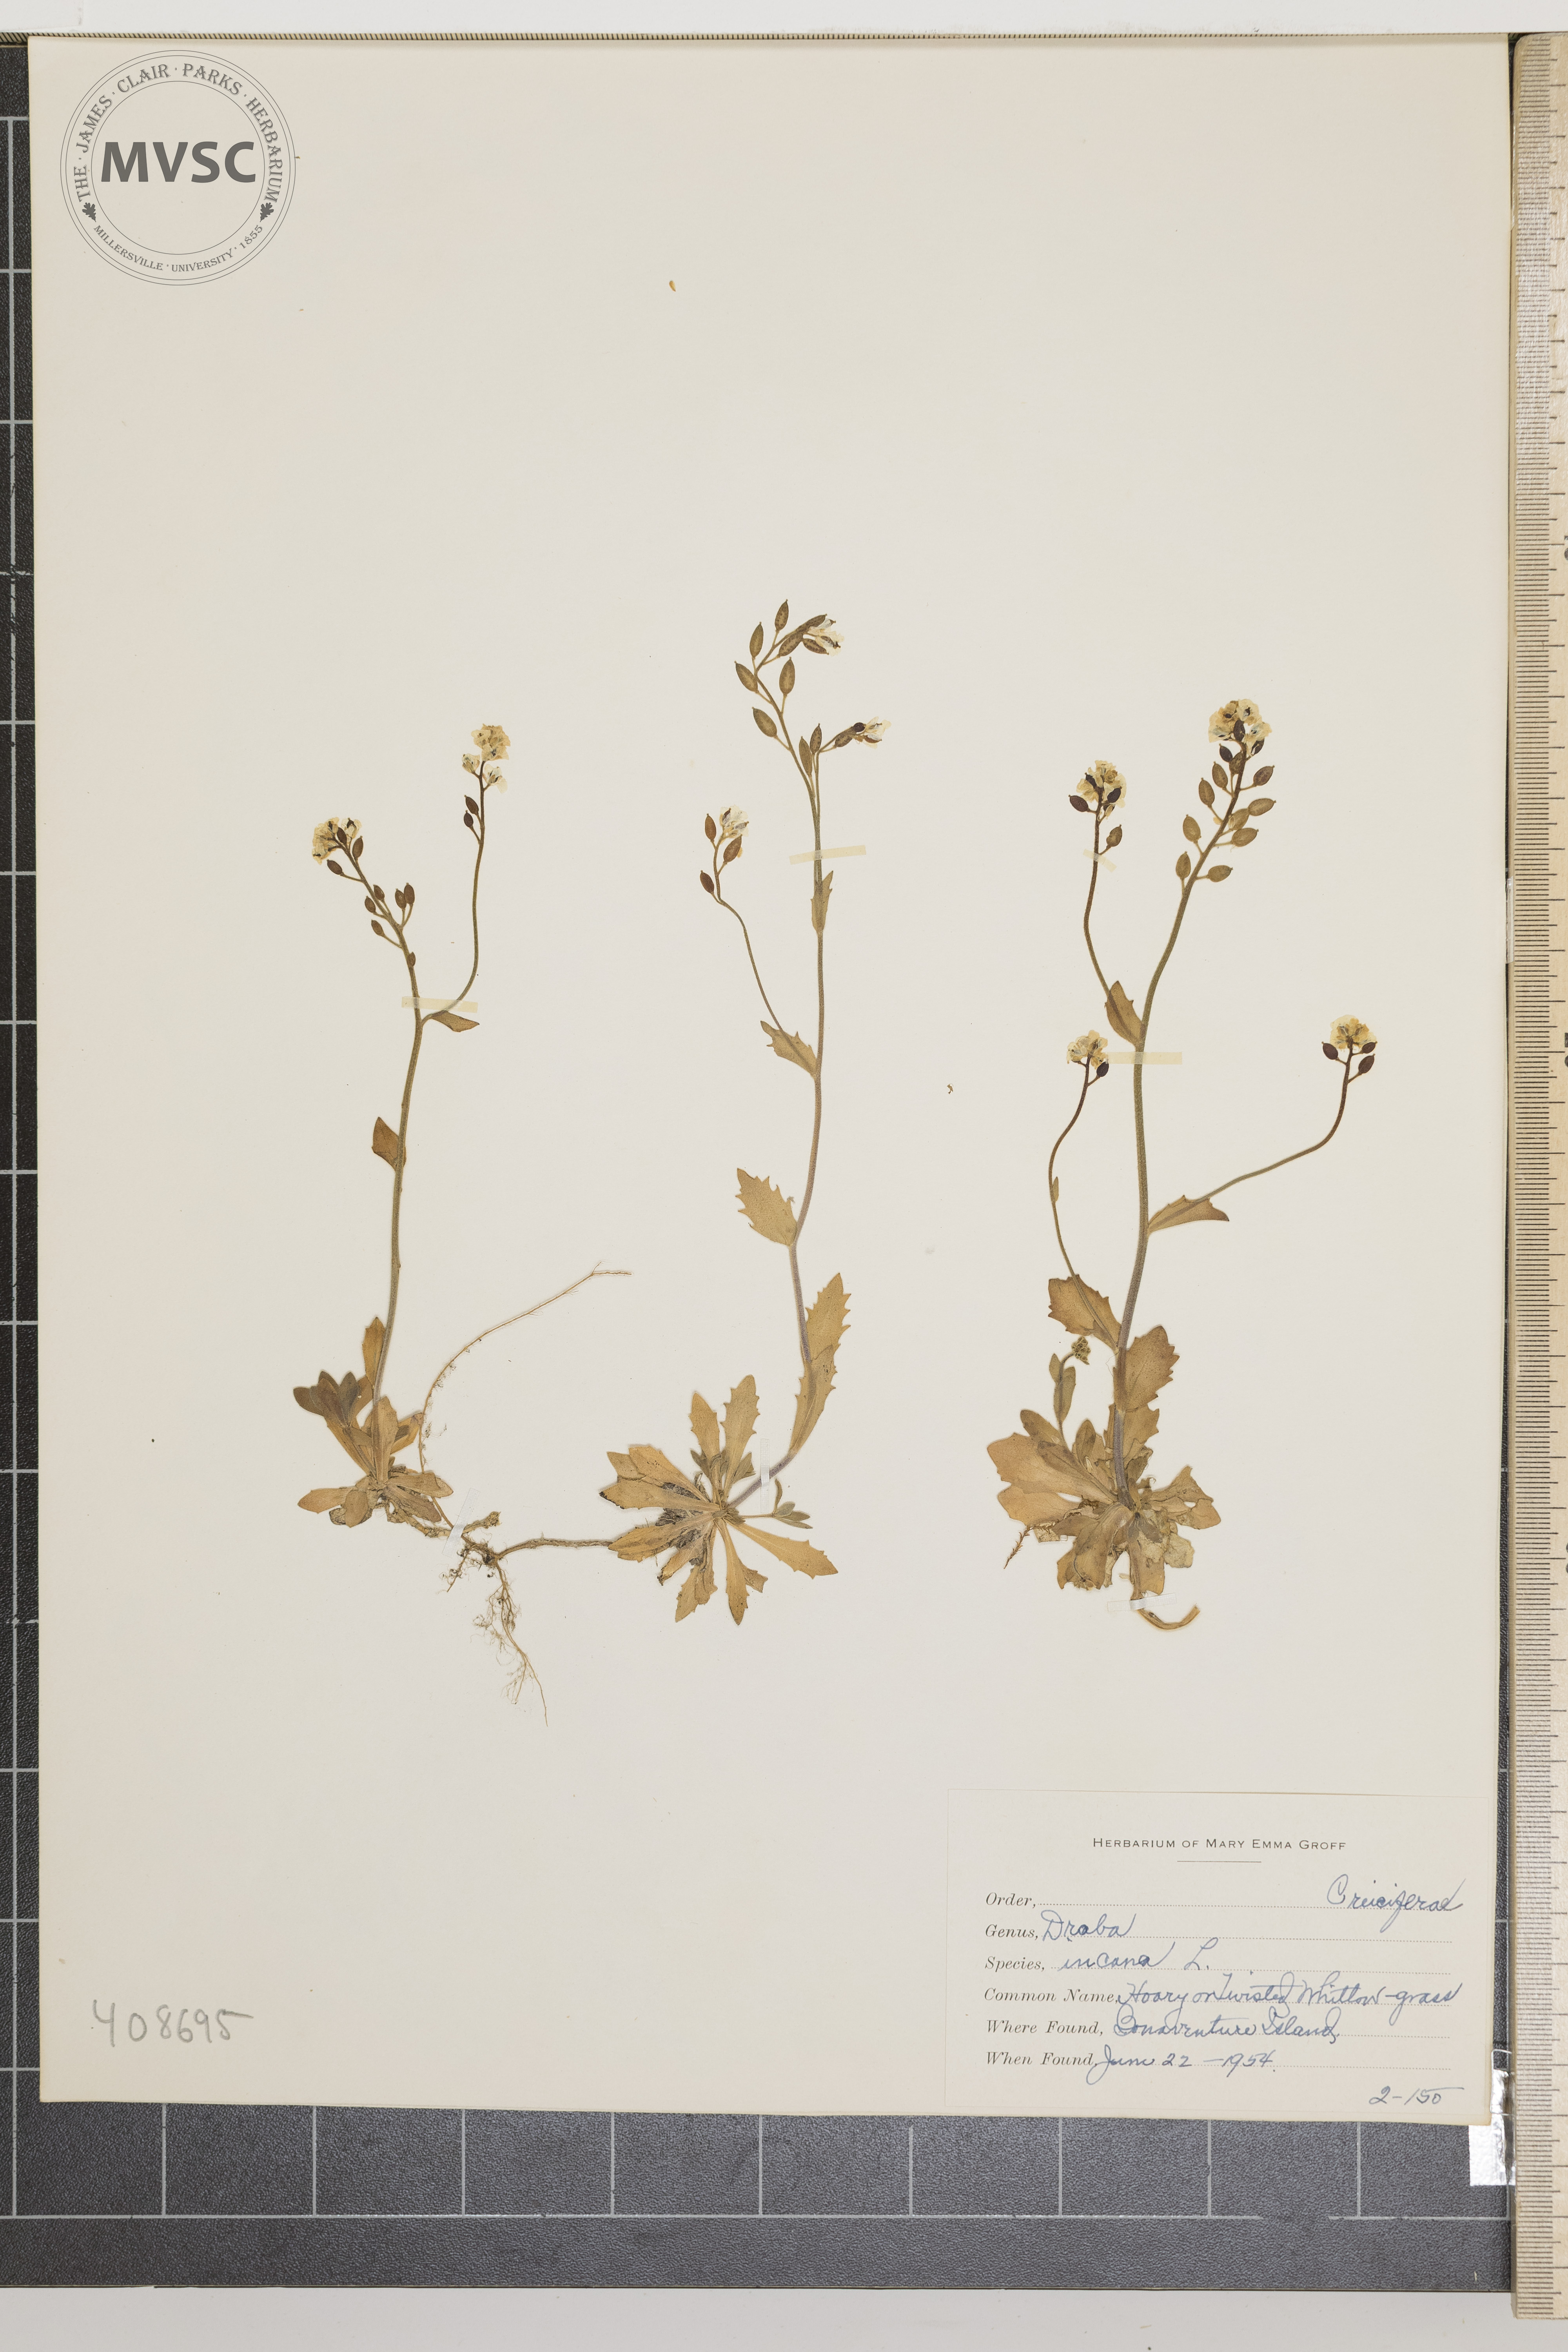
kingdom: Plantae
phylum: Tracheophyta
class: Magnoliopsida
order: Brassicales
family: Brassicaceae
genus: Draba
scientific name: Draba incana
